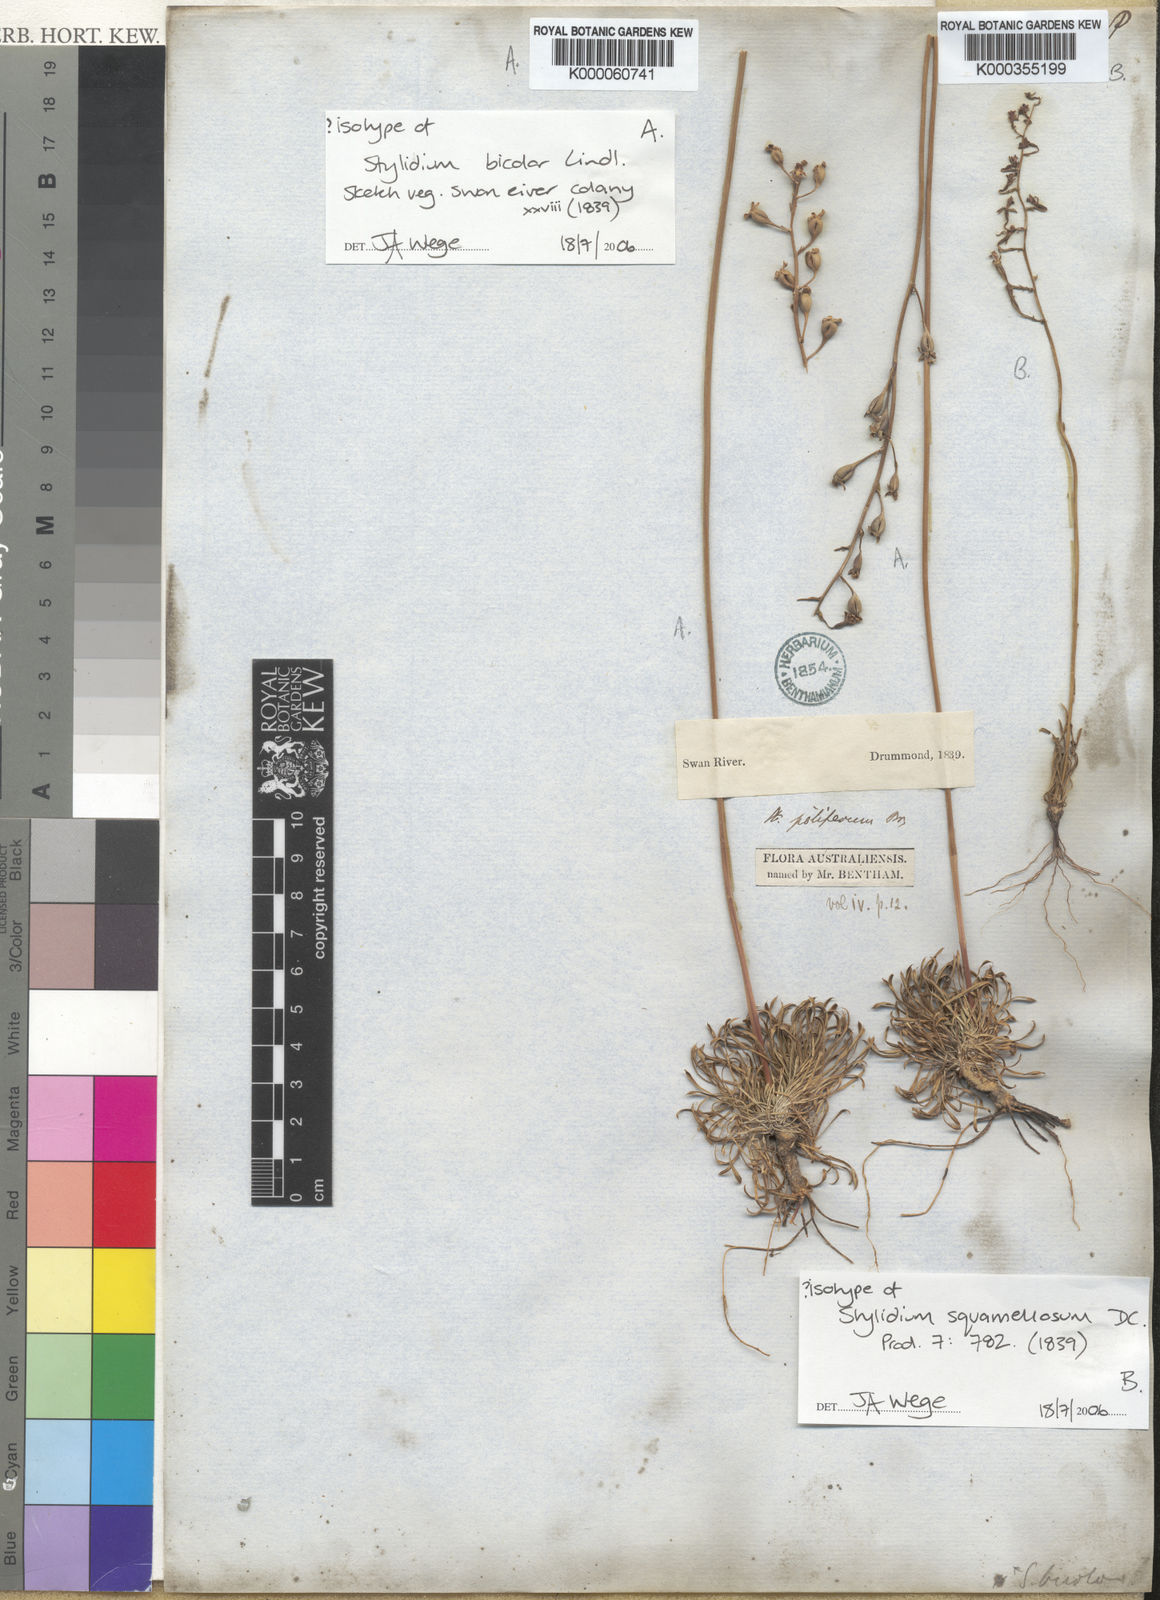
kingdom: Plantae
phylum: Tracheophyta
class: Magnoliopsida
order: Asterales
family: Stylidiaceae
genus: Stylidium
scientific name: Stylidium bicolor
